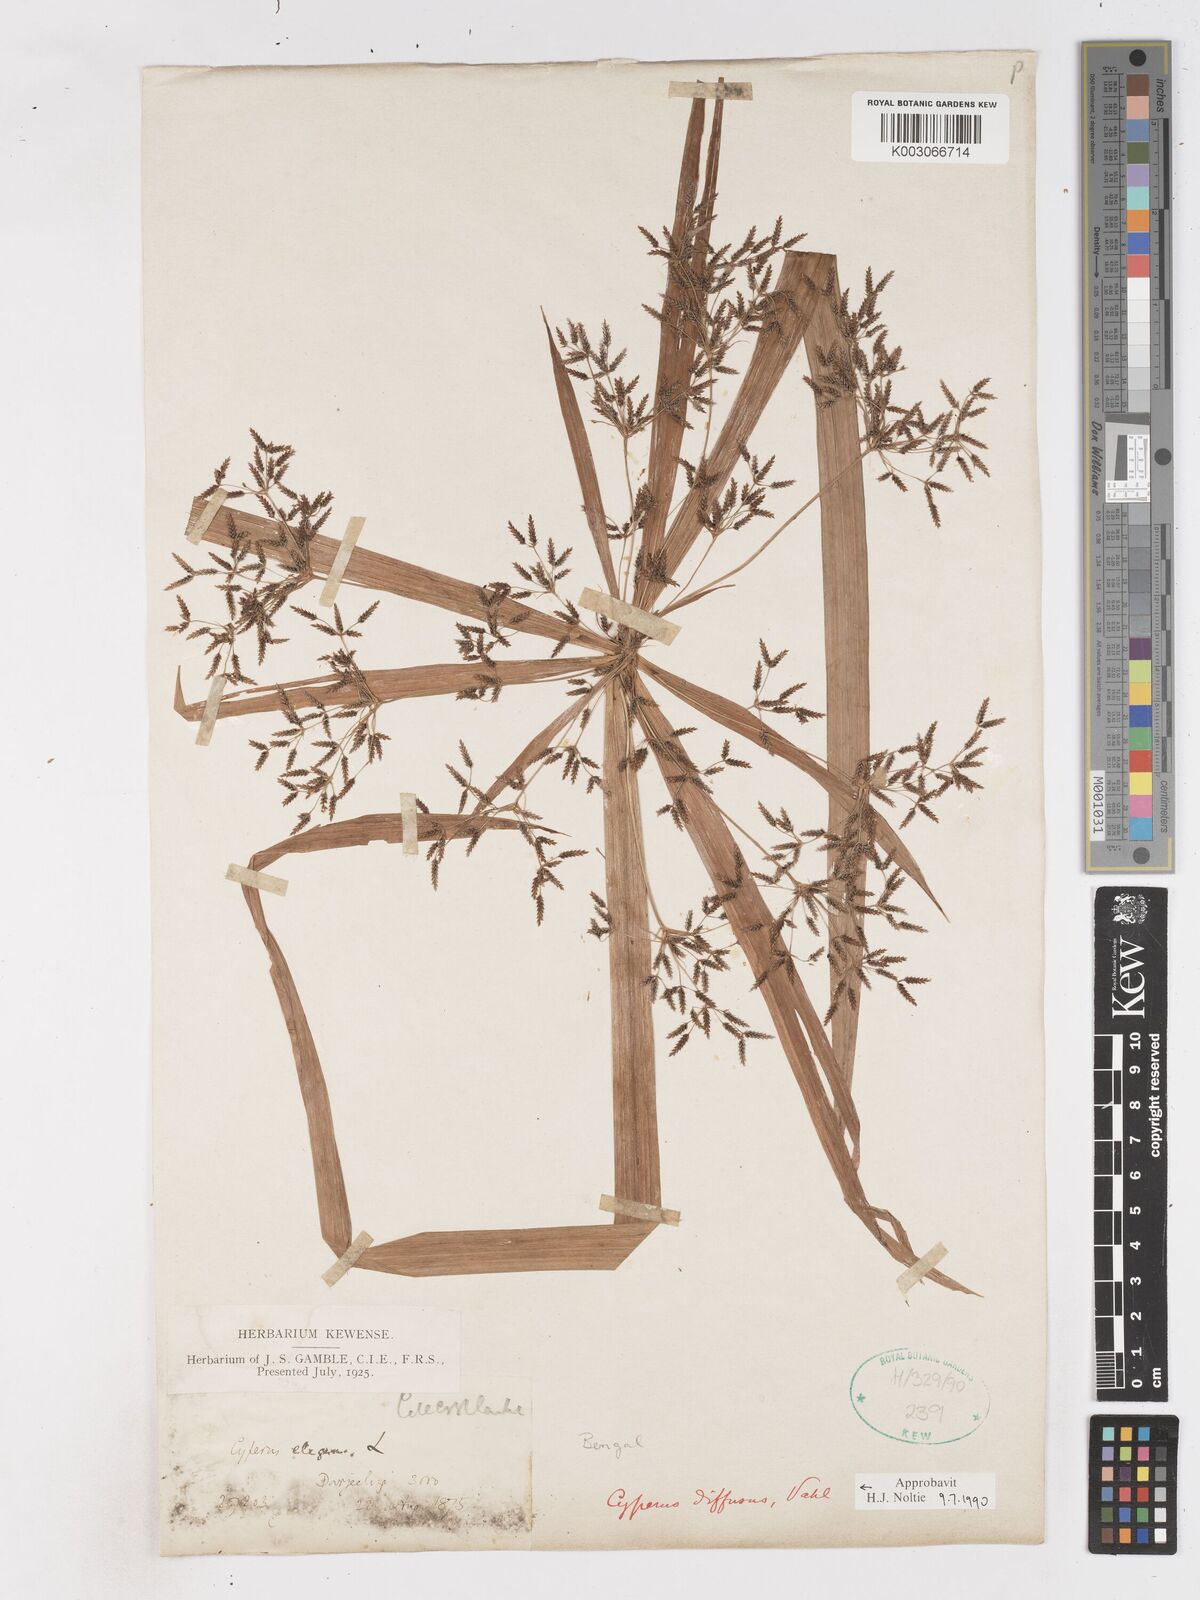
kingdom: Plantae
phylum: Tracheophyta
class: Liliopsida
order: Poales
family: Cyperaceae
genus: Cyperus
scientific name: Cyperus diffusus
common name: Dwarf umbrella grass
